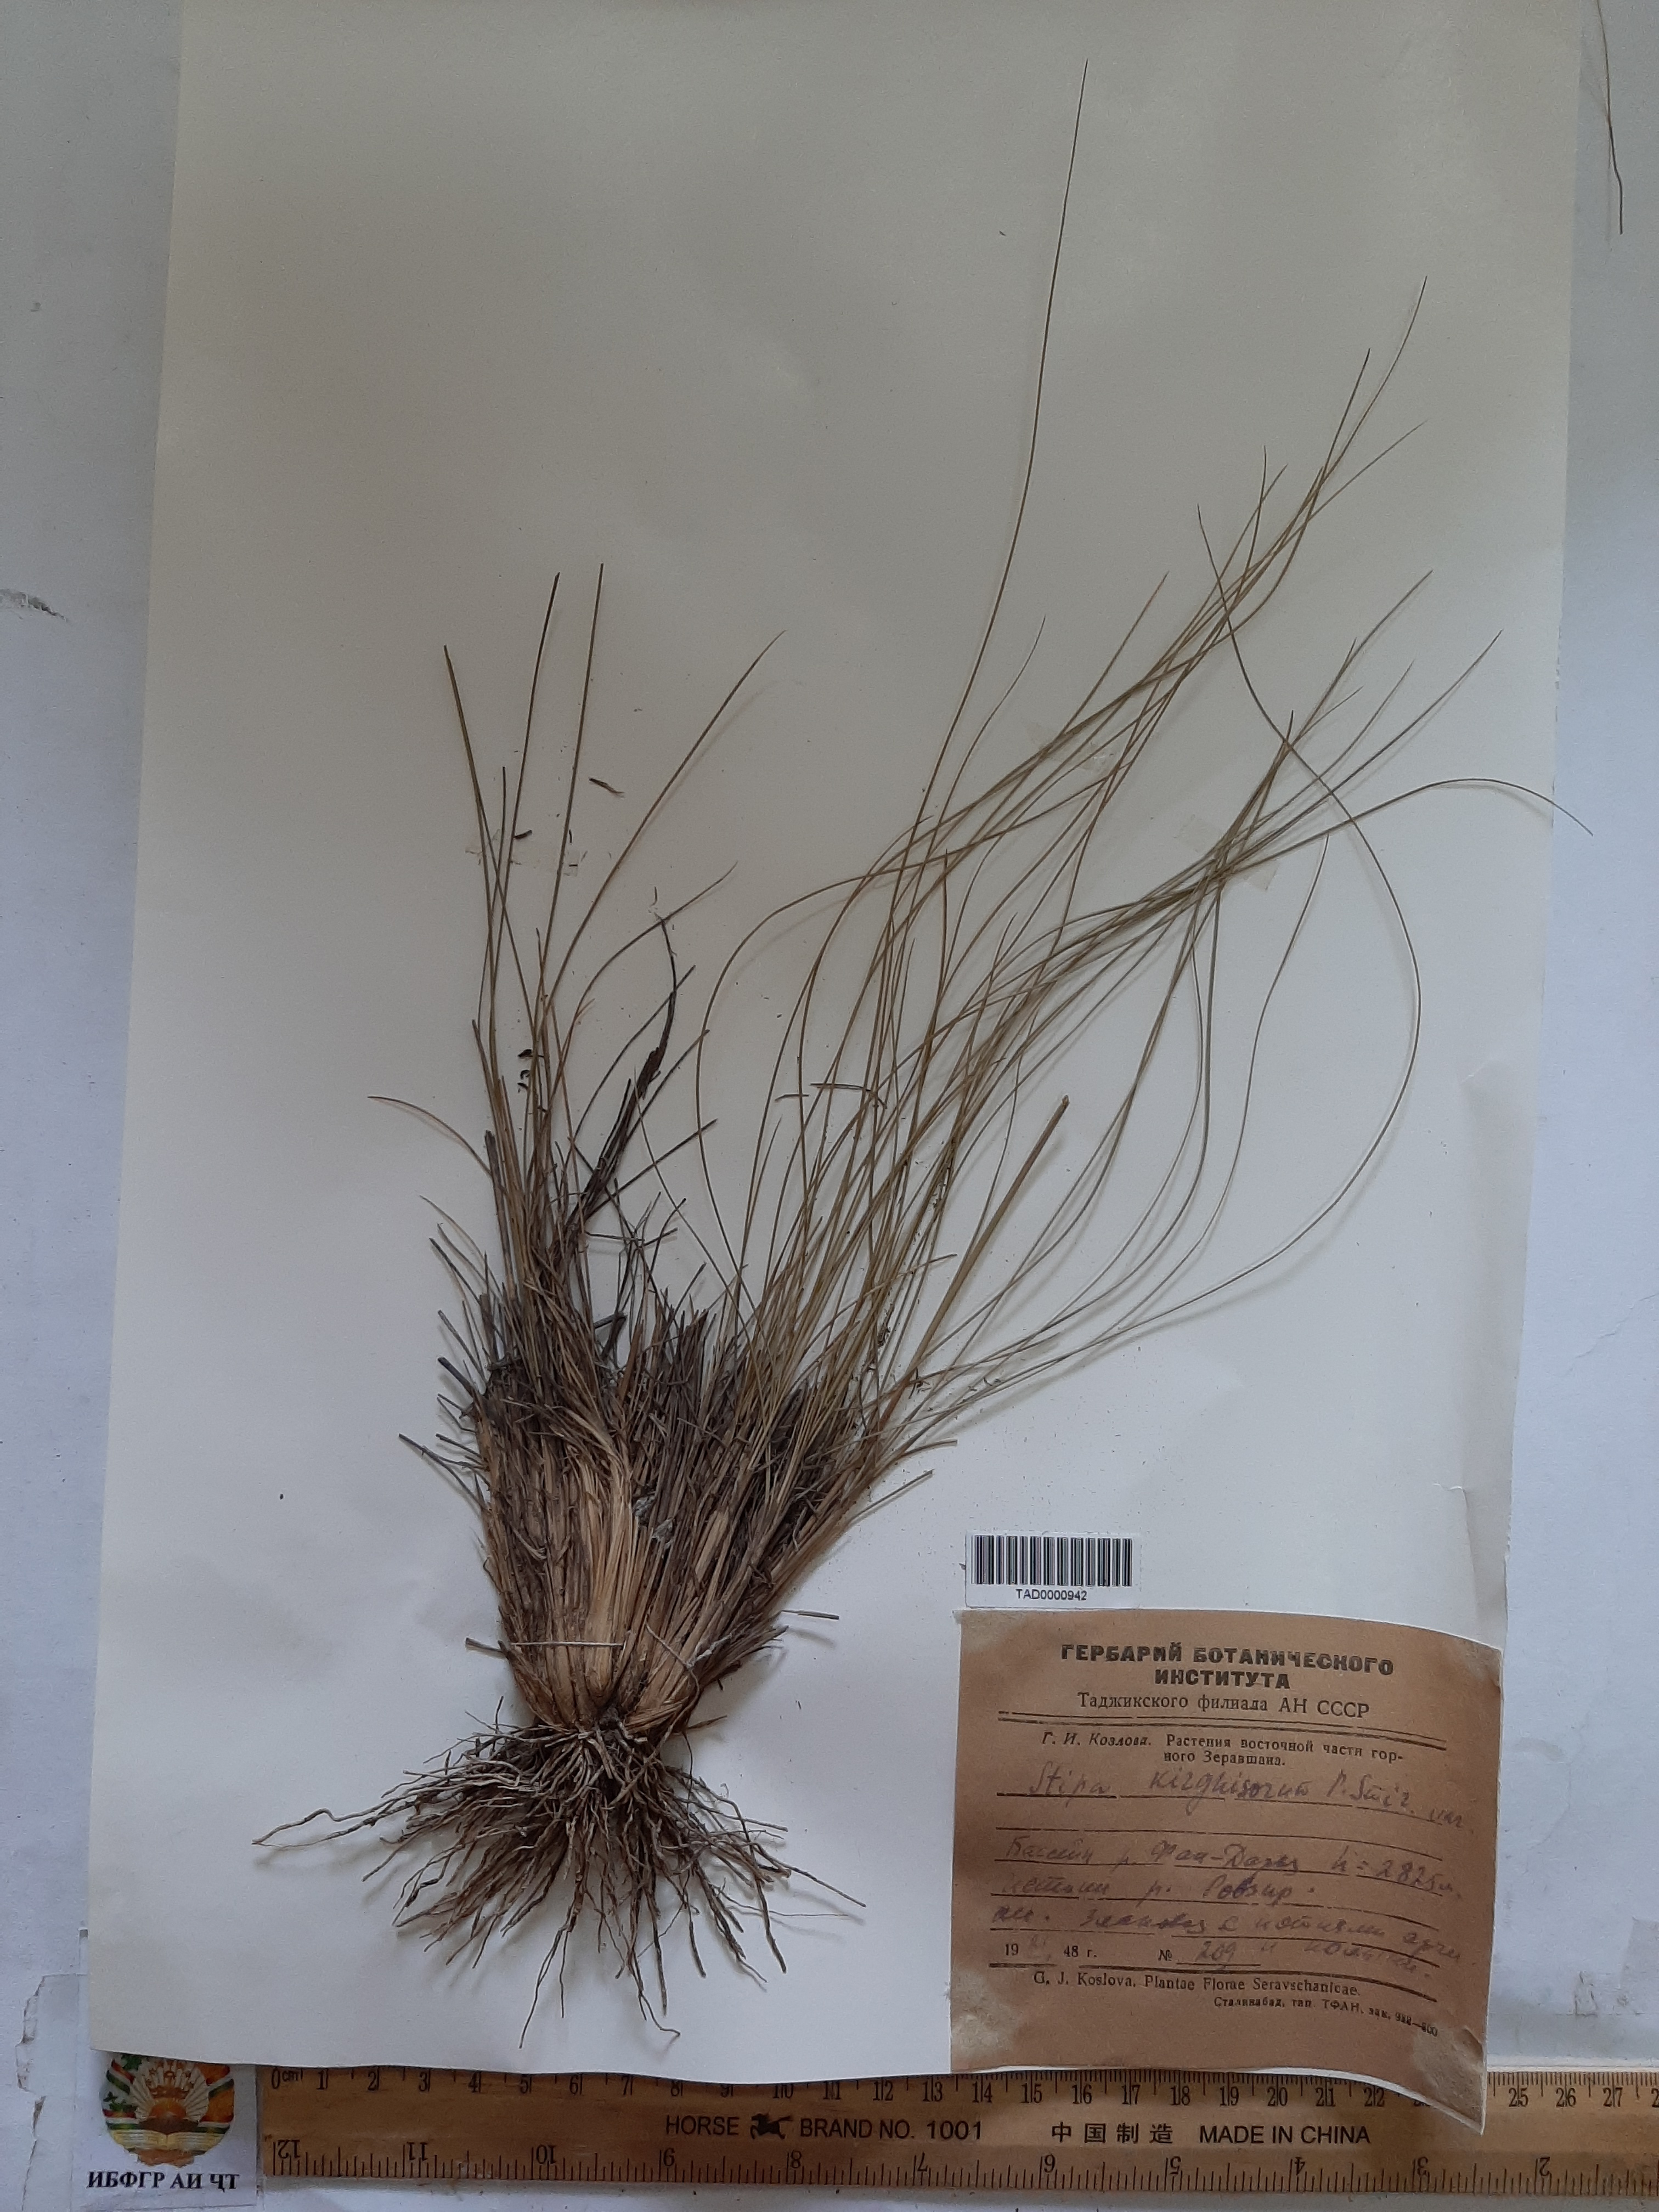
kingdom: Plantae
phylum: Tracheophyta
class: Liliopsida
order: Poales
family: Poaceae
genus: Stipa
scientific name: Stipa kirghisorum
